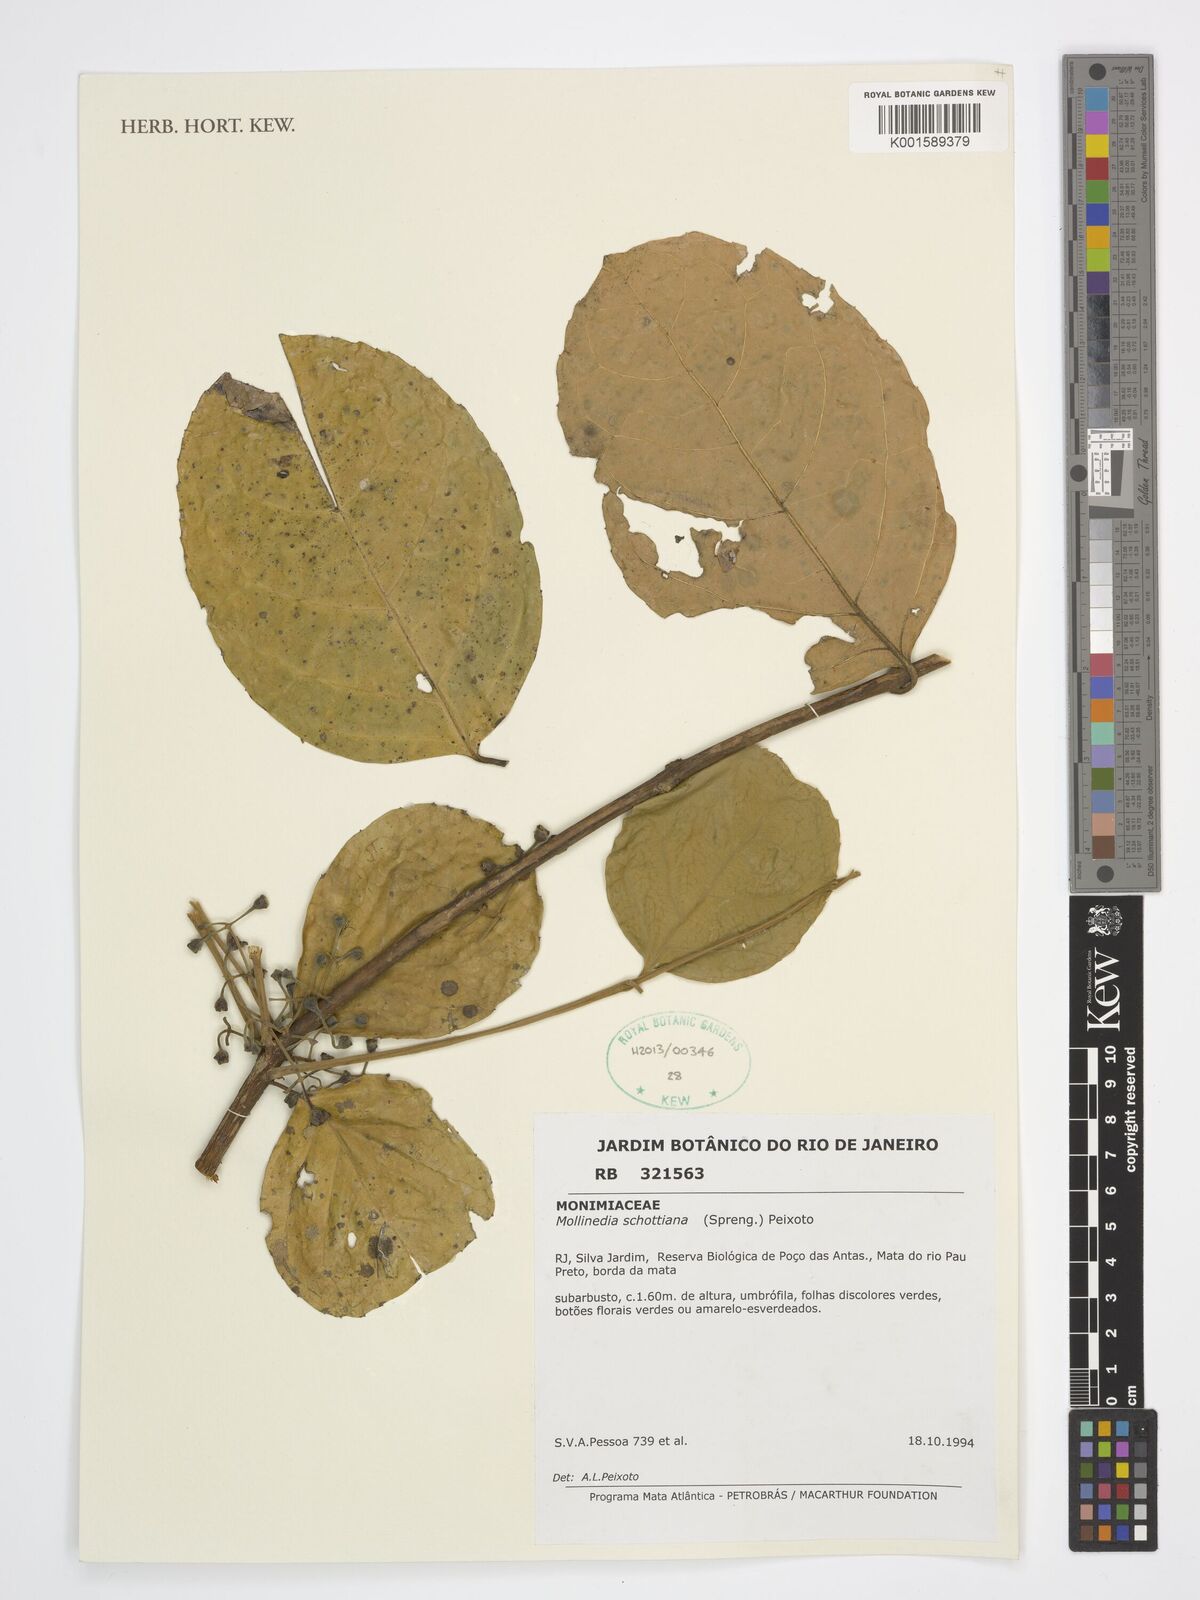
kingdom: Plantae
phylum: Tracheophyta
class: Magnoliopsida
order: Laurales
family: Monimiaceae
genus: Mollinedia
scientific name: Mollinedia umbellata
